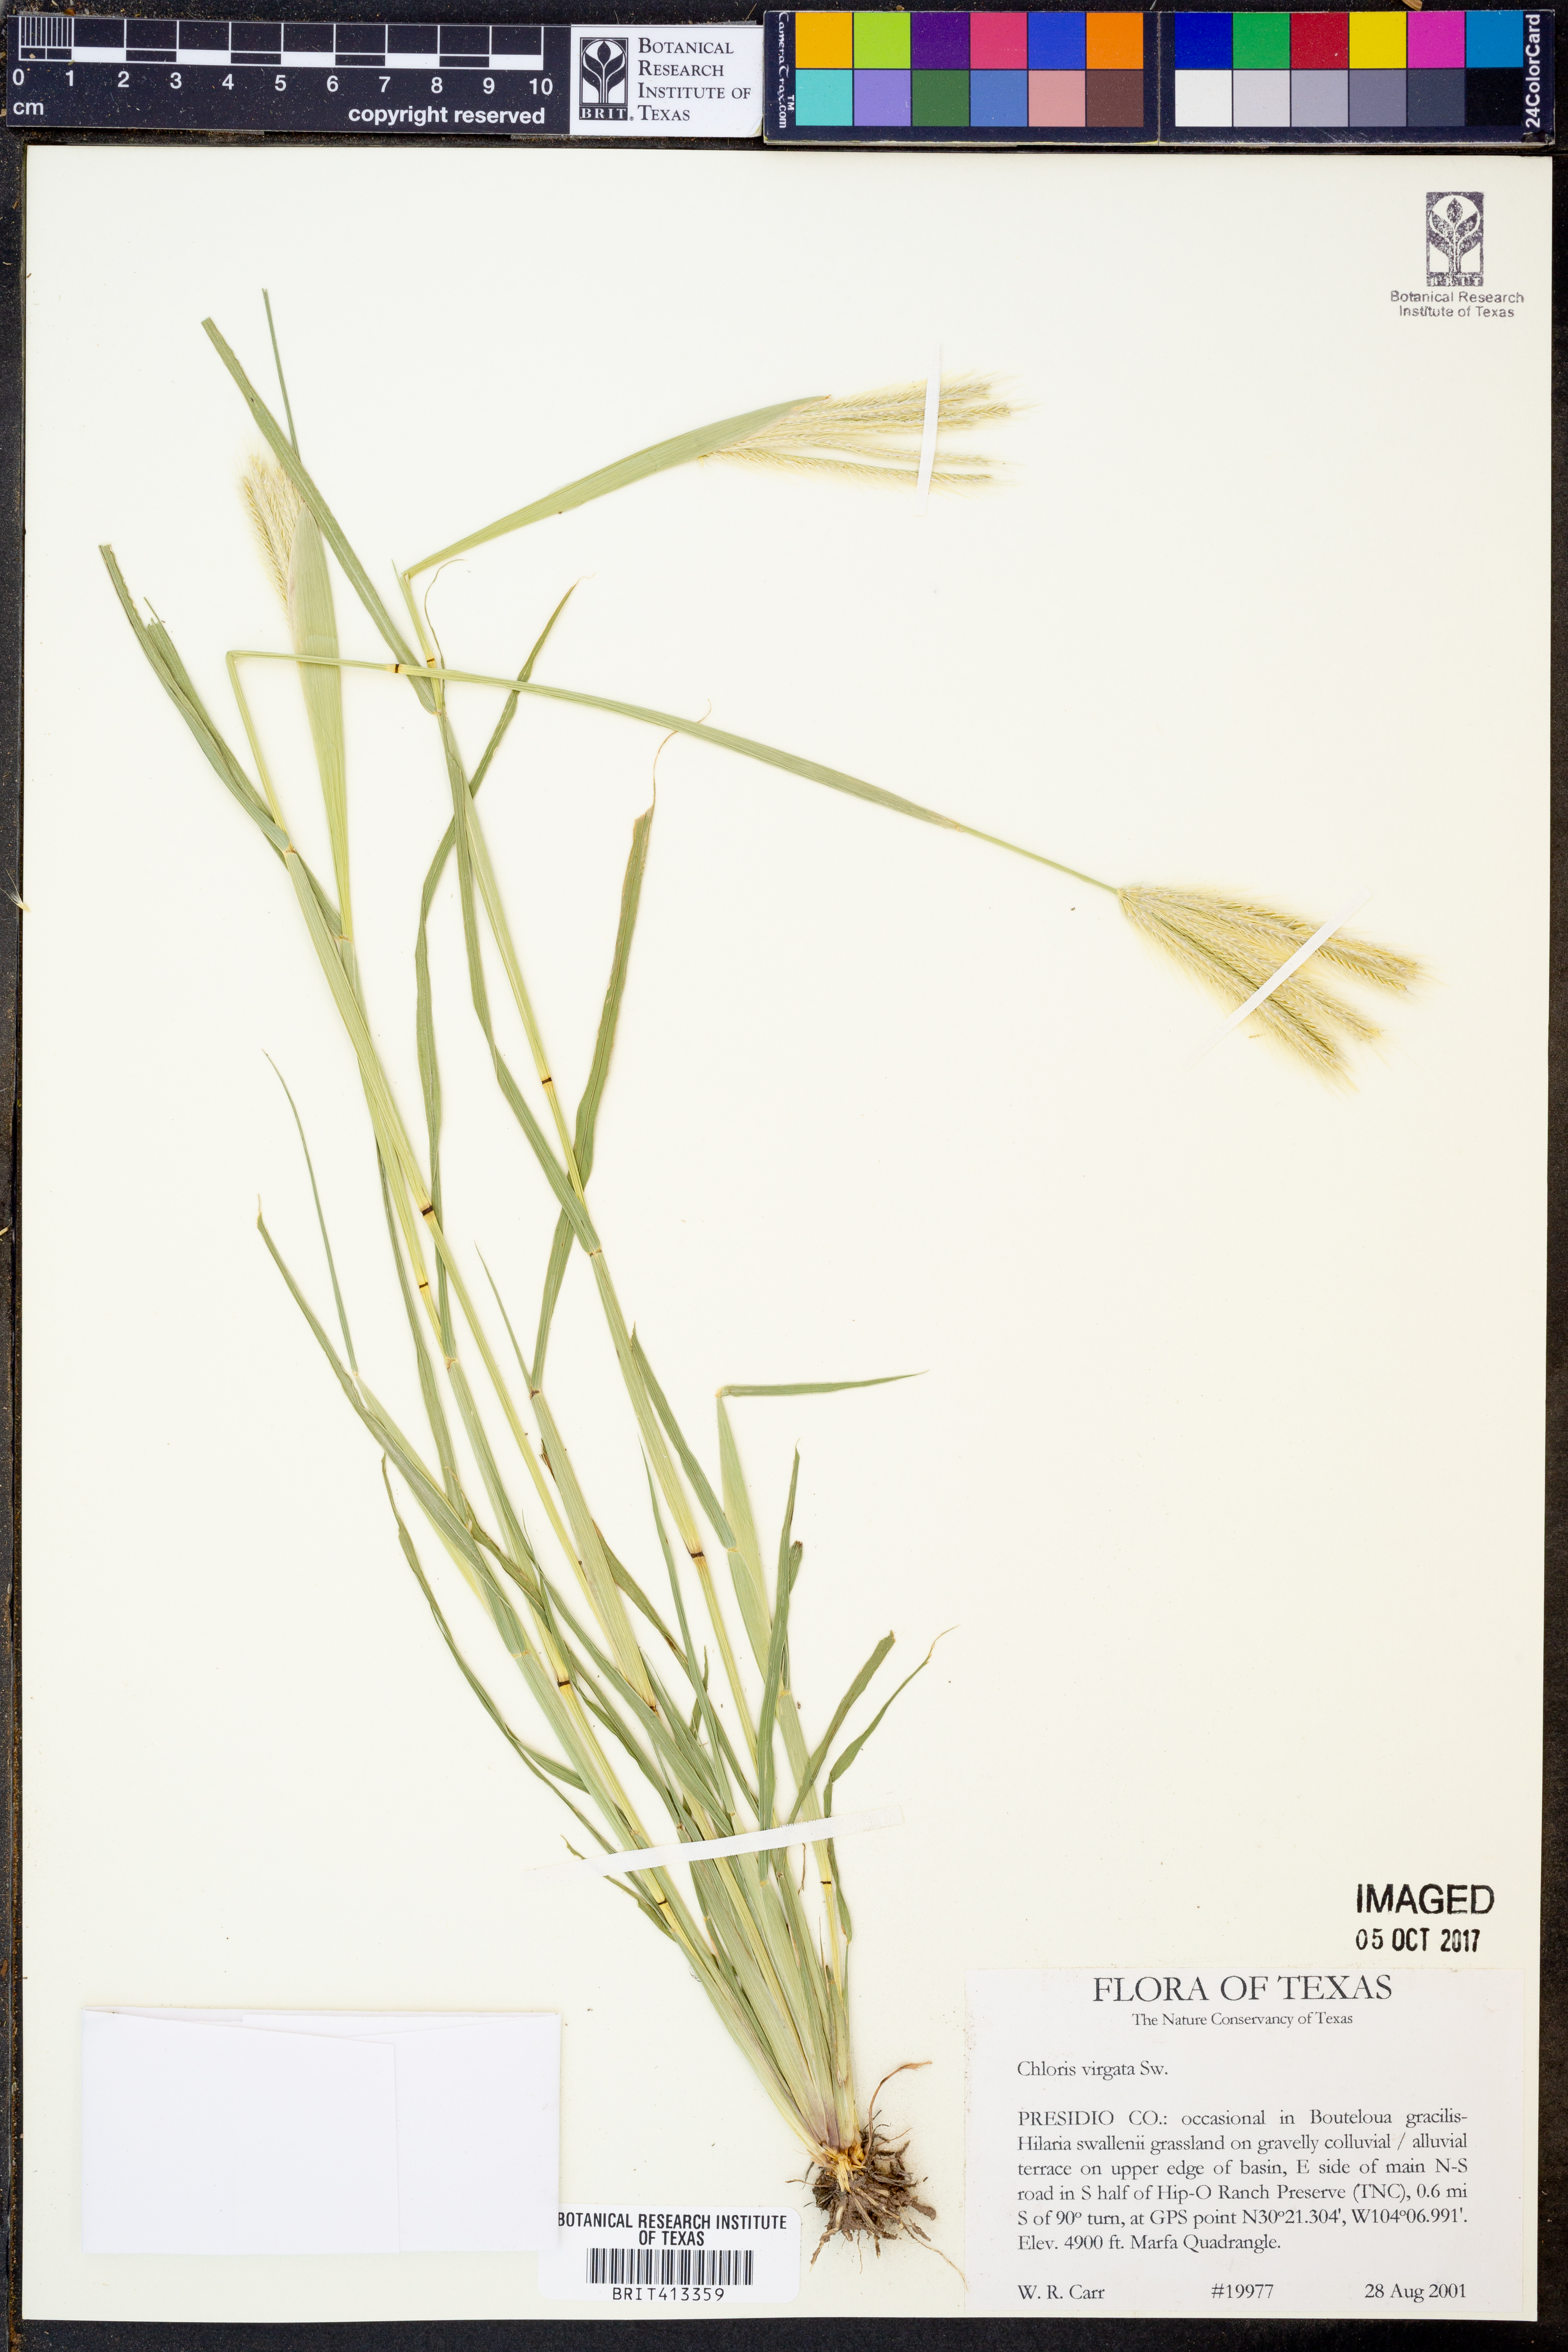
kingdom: Plantae
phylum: Tracheophyta
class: Liliopsida
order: Poales
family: Poaceae
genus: Chloris
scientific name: Chloris virgata
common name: Feathery rhodes-grass
